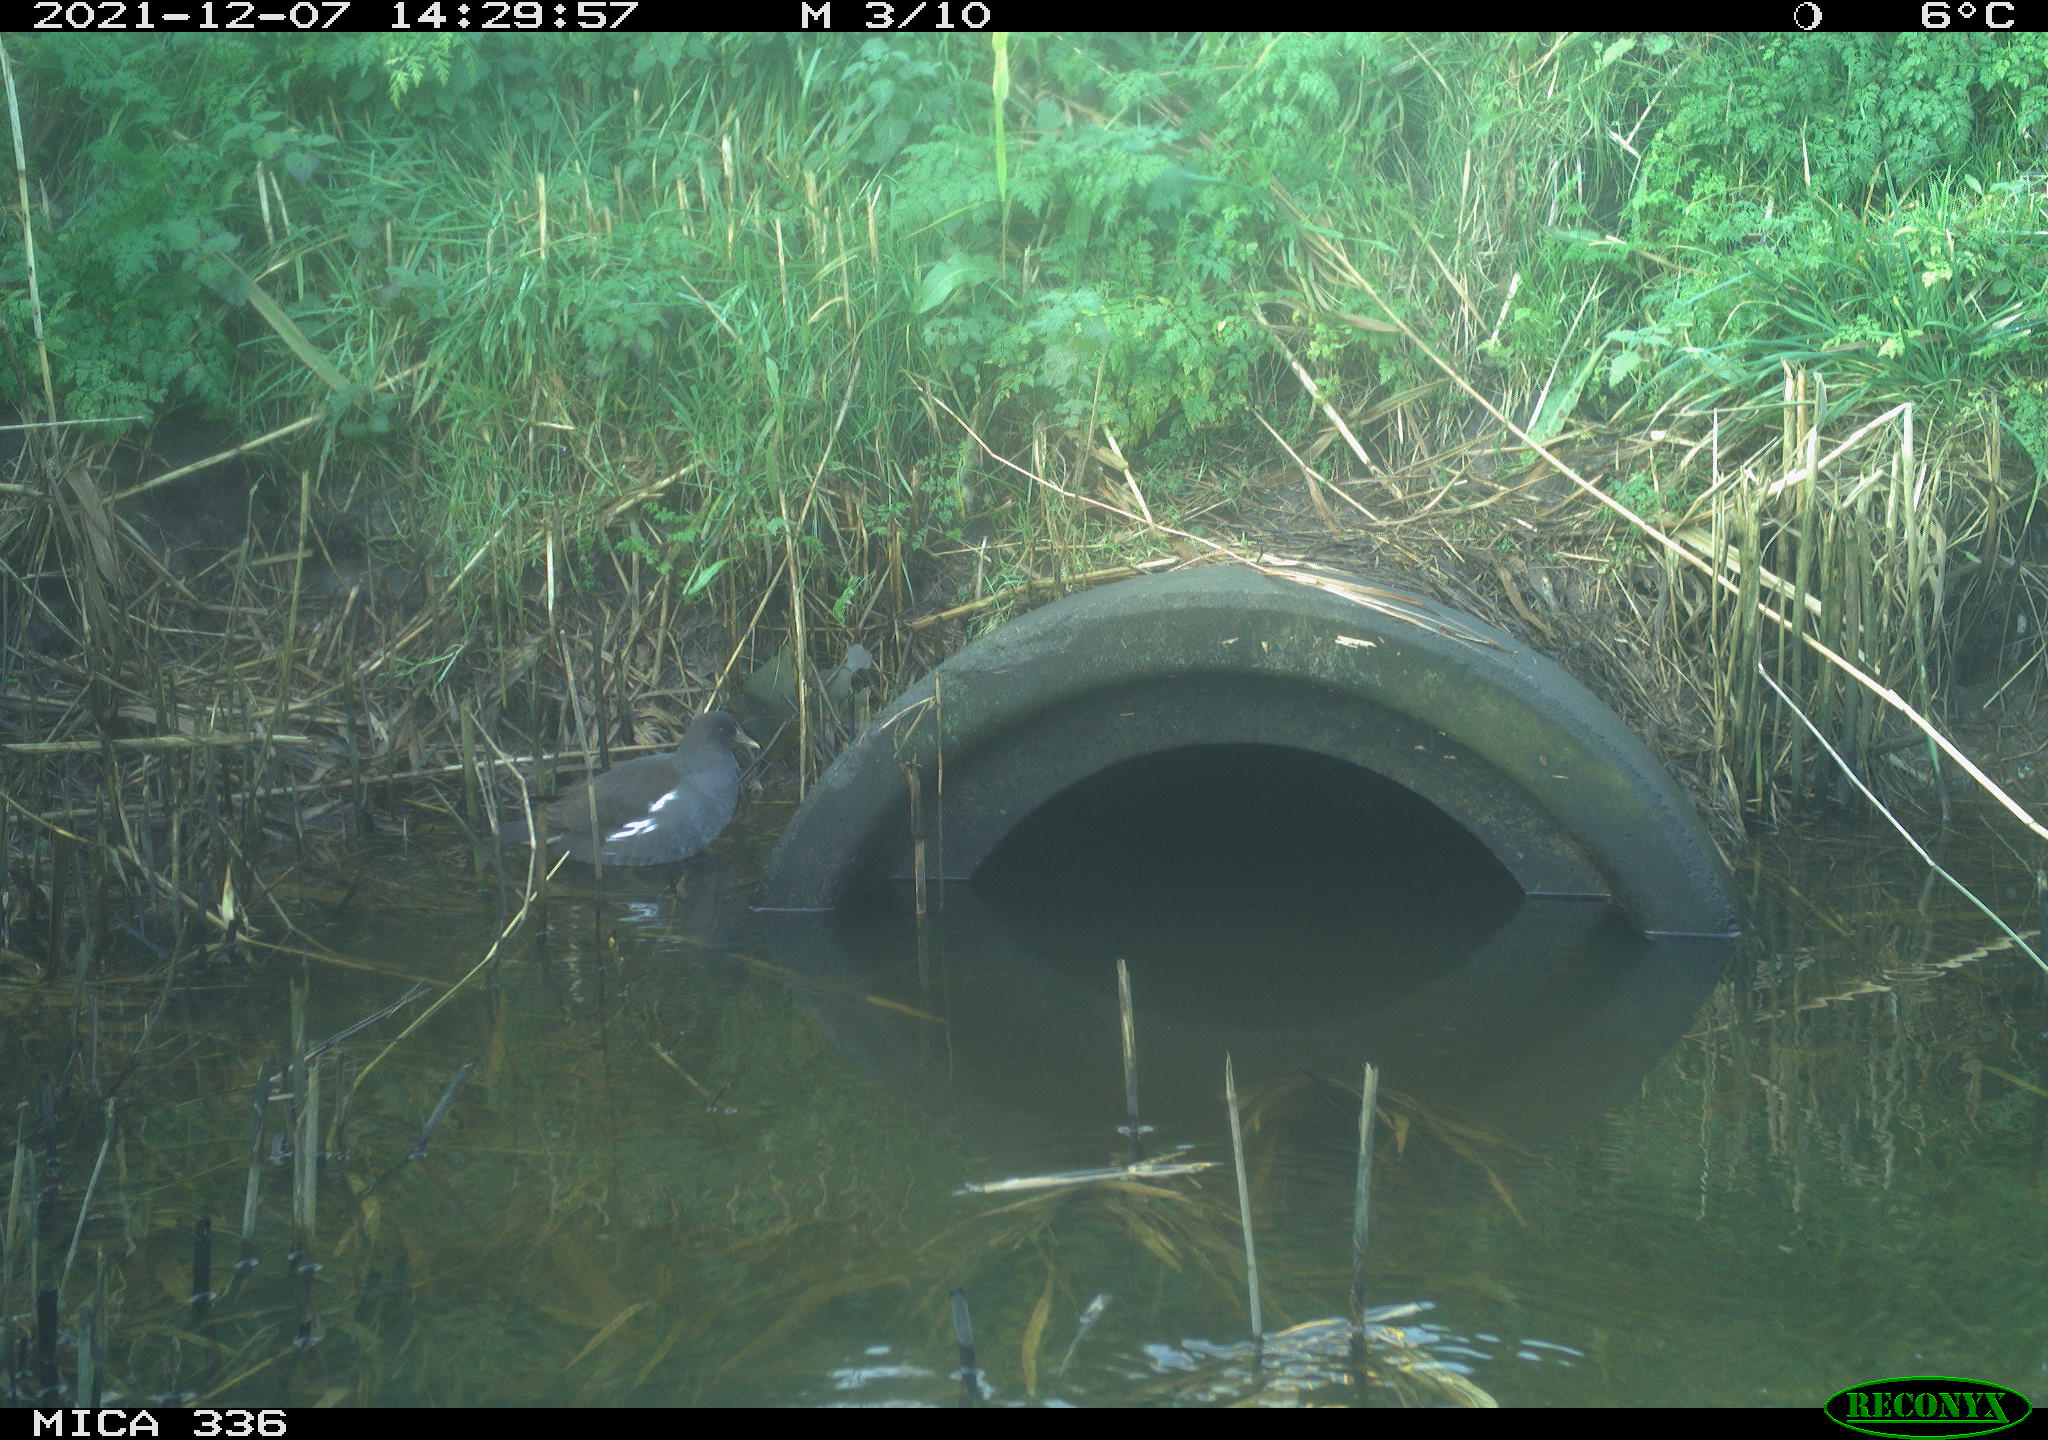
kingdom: Animalia
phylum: Chordata
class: Aves
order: Gruiformes
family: Rallidae
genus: Gallinula
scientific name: Gallinula chloropus
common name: Common moorhen
